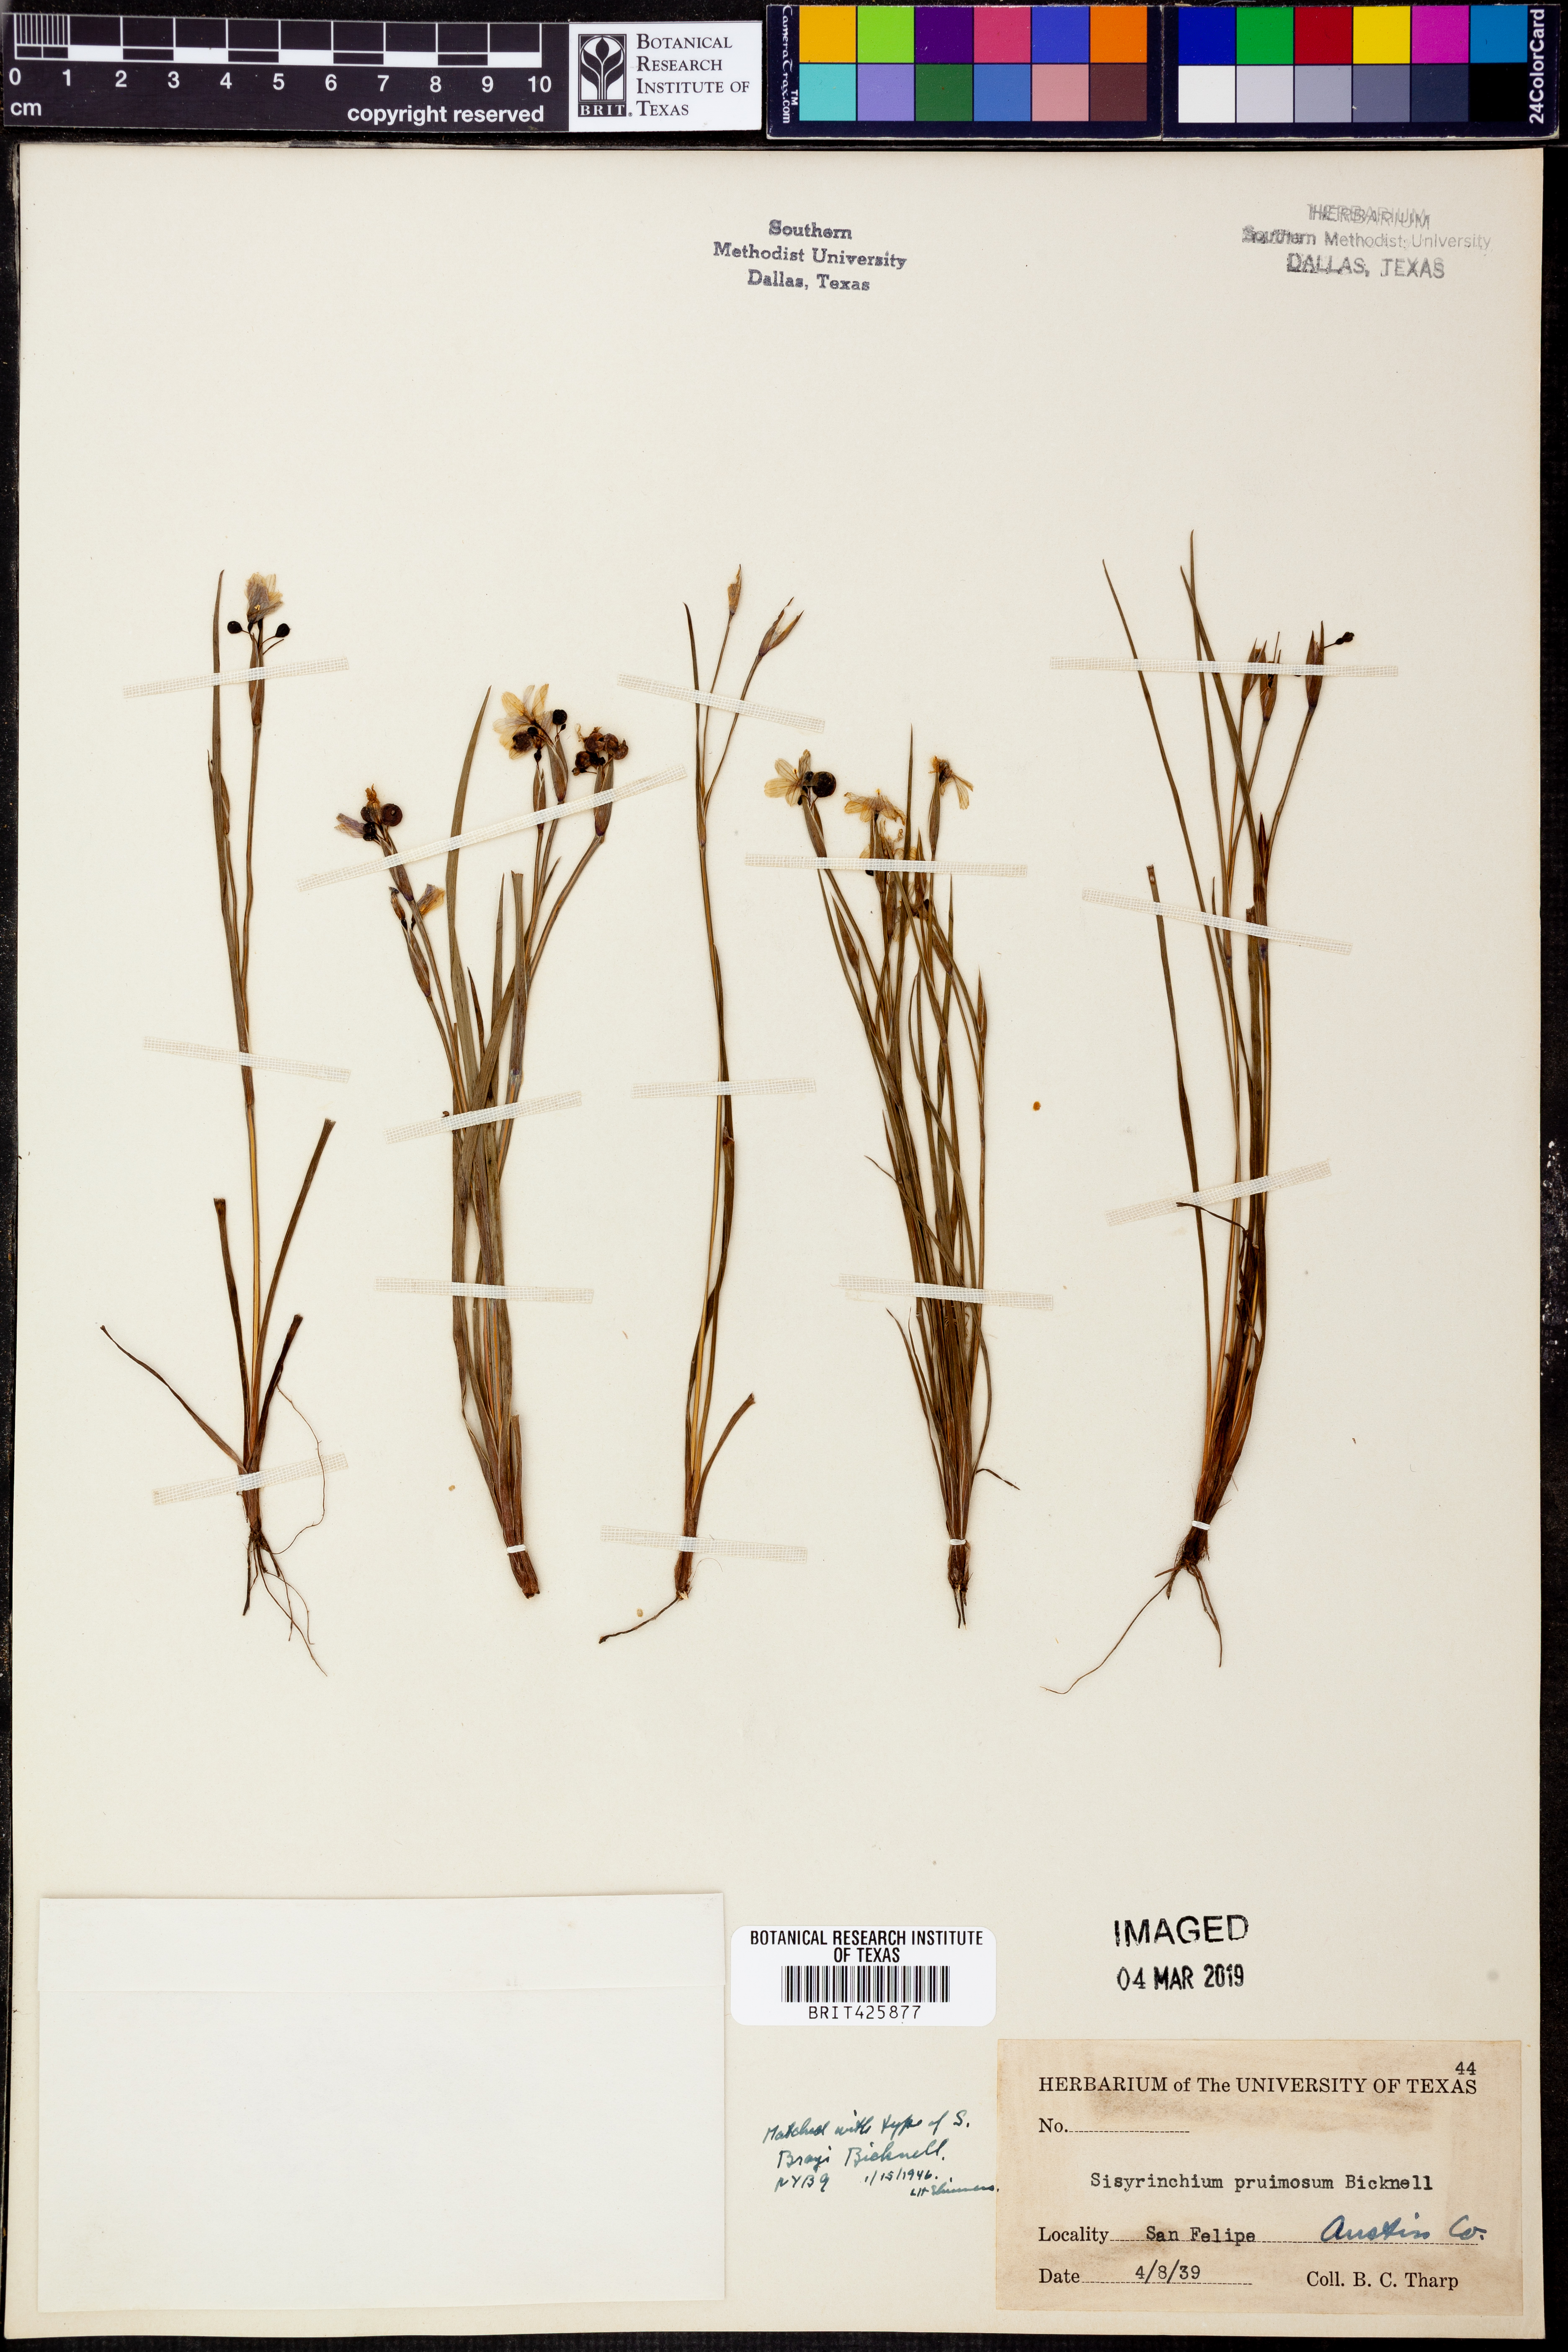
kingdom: Plantae
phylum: Tracheophyta
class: Liliopsida
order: Asparagales
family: Iridaceae
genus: Sisyrinchium
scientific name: Sisyrinchium pruinosum
